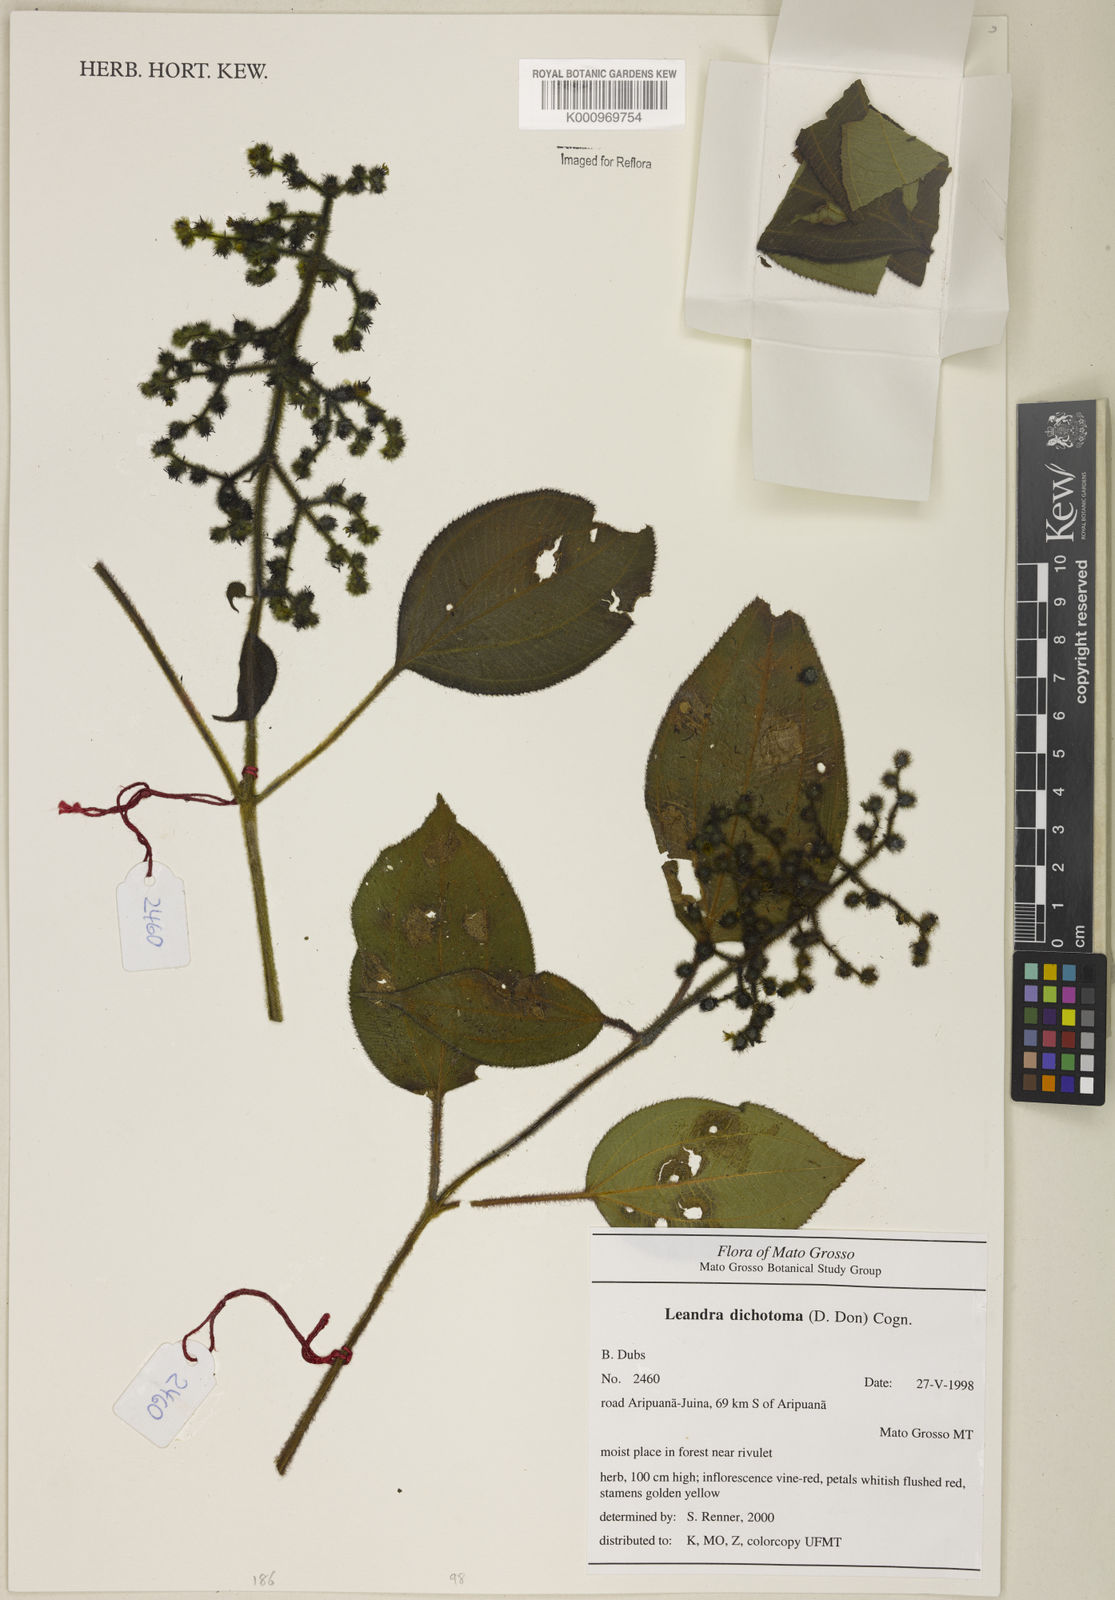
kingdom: Plantae
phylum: Tracheophyta
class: Magnoliopsida
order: Myrtales
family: Melastomataceae
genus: Miconia
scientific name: Miconia sulcicaulis
